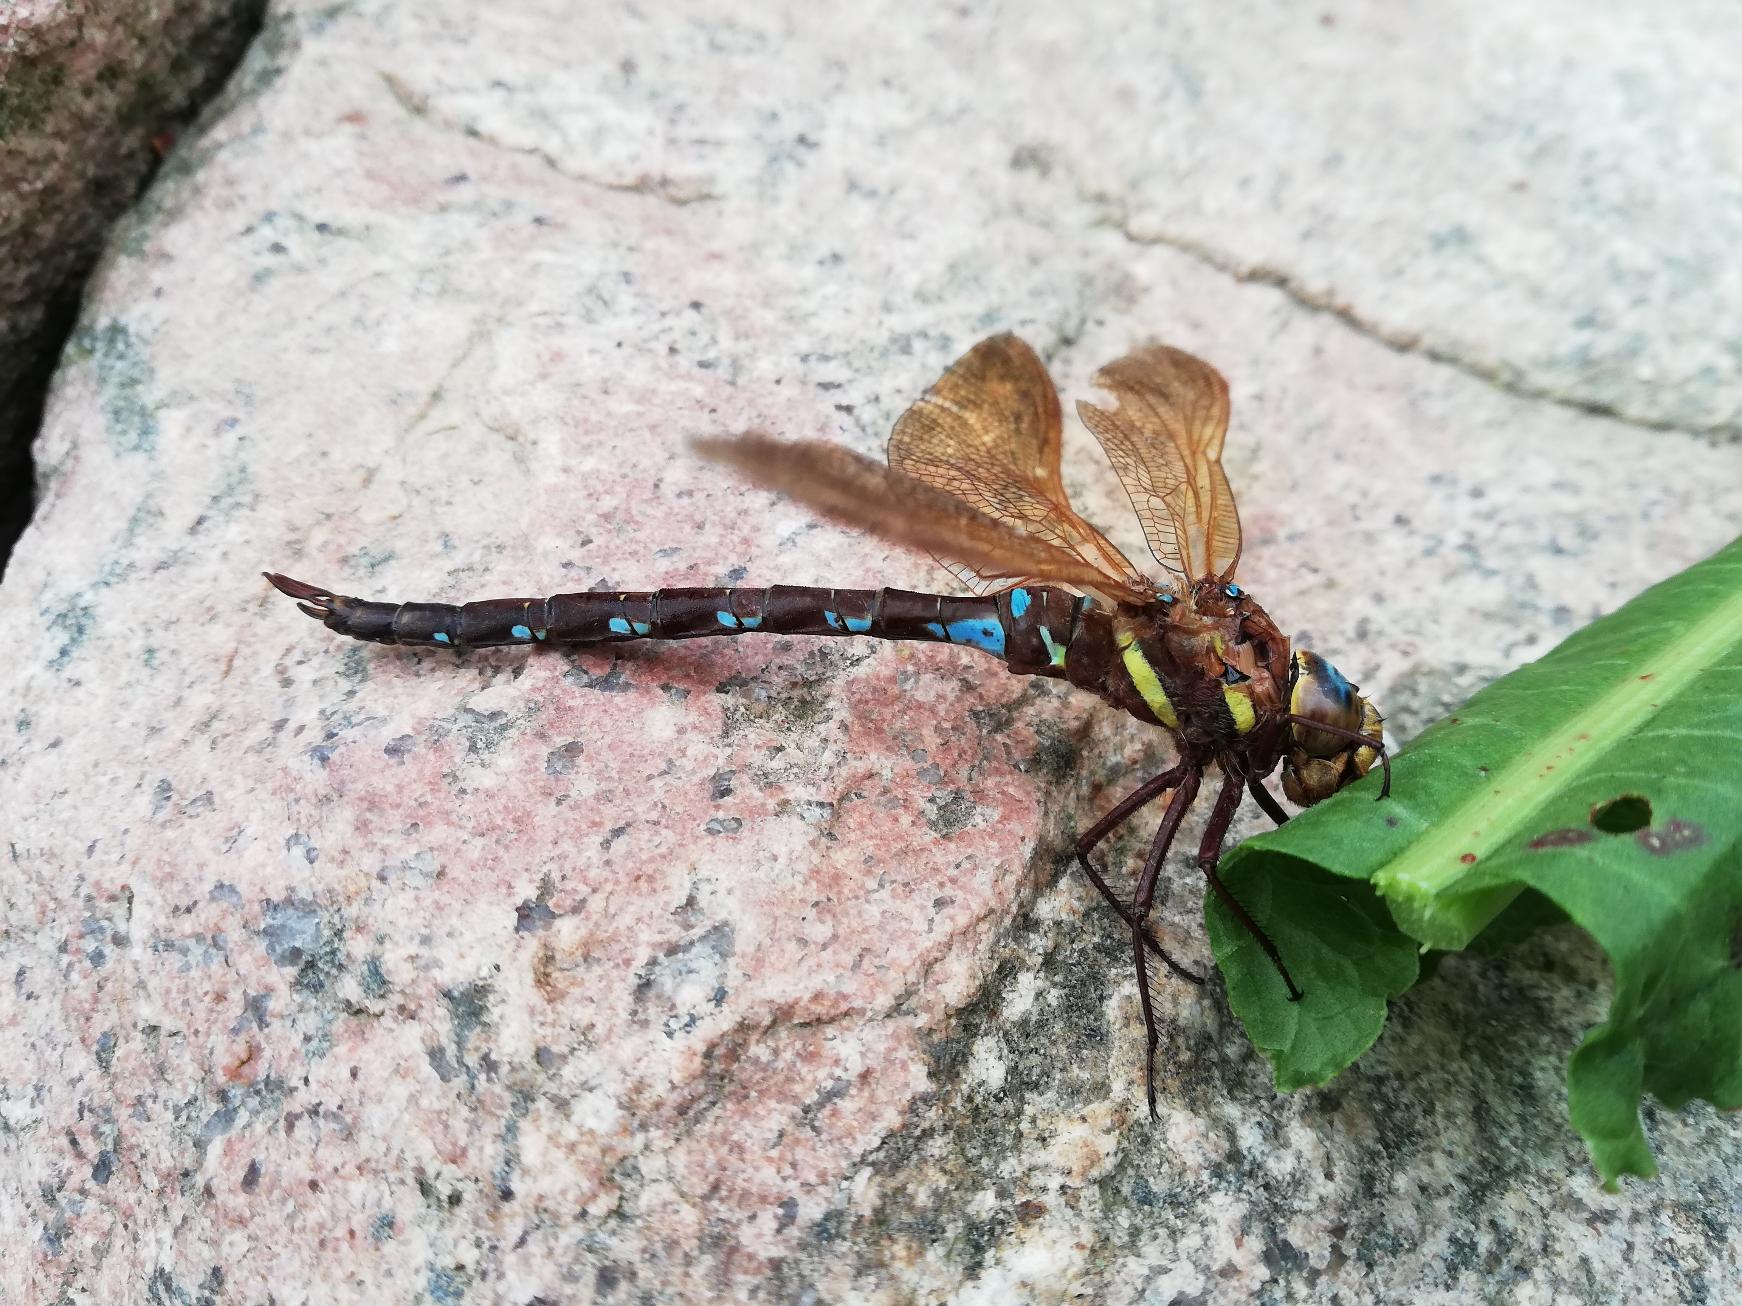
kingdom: Animalia
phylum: Arthropoda
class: Insecta
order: Odonata
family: Aeshnidae
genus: Aeshna
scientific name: Aeshna grandis
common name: Brun mosaikguldsmed
